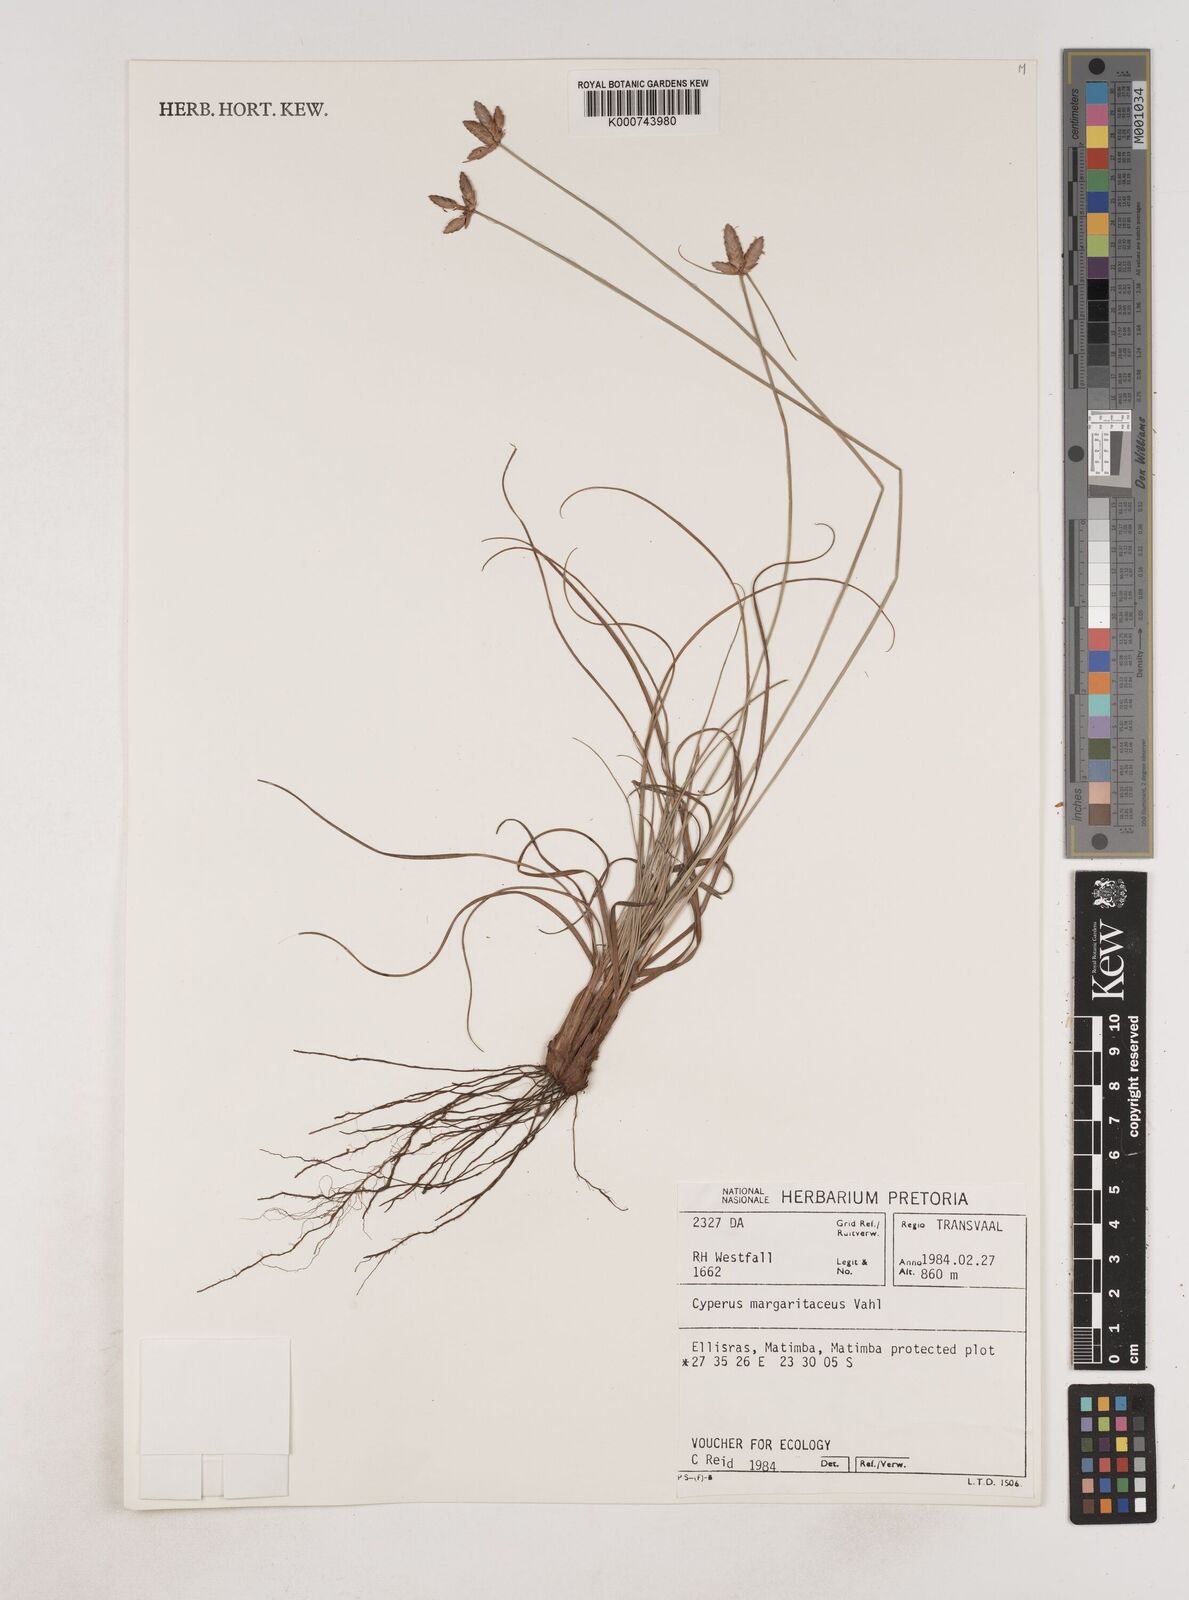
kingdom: Plantae
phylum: Tracheophyta
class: Liliopsida
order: Poales
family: Cyperaceae
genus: Cyperus
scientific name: Cyperus margaritaceus
